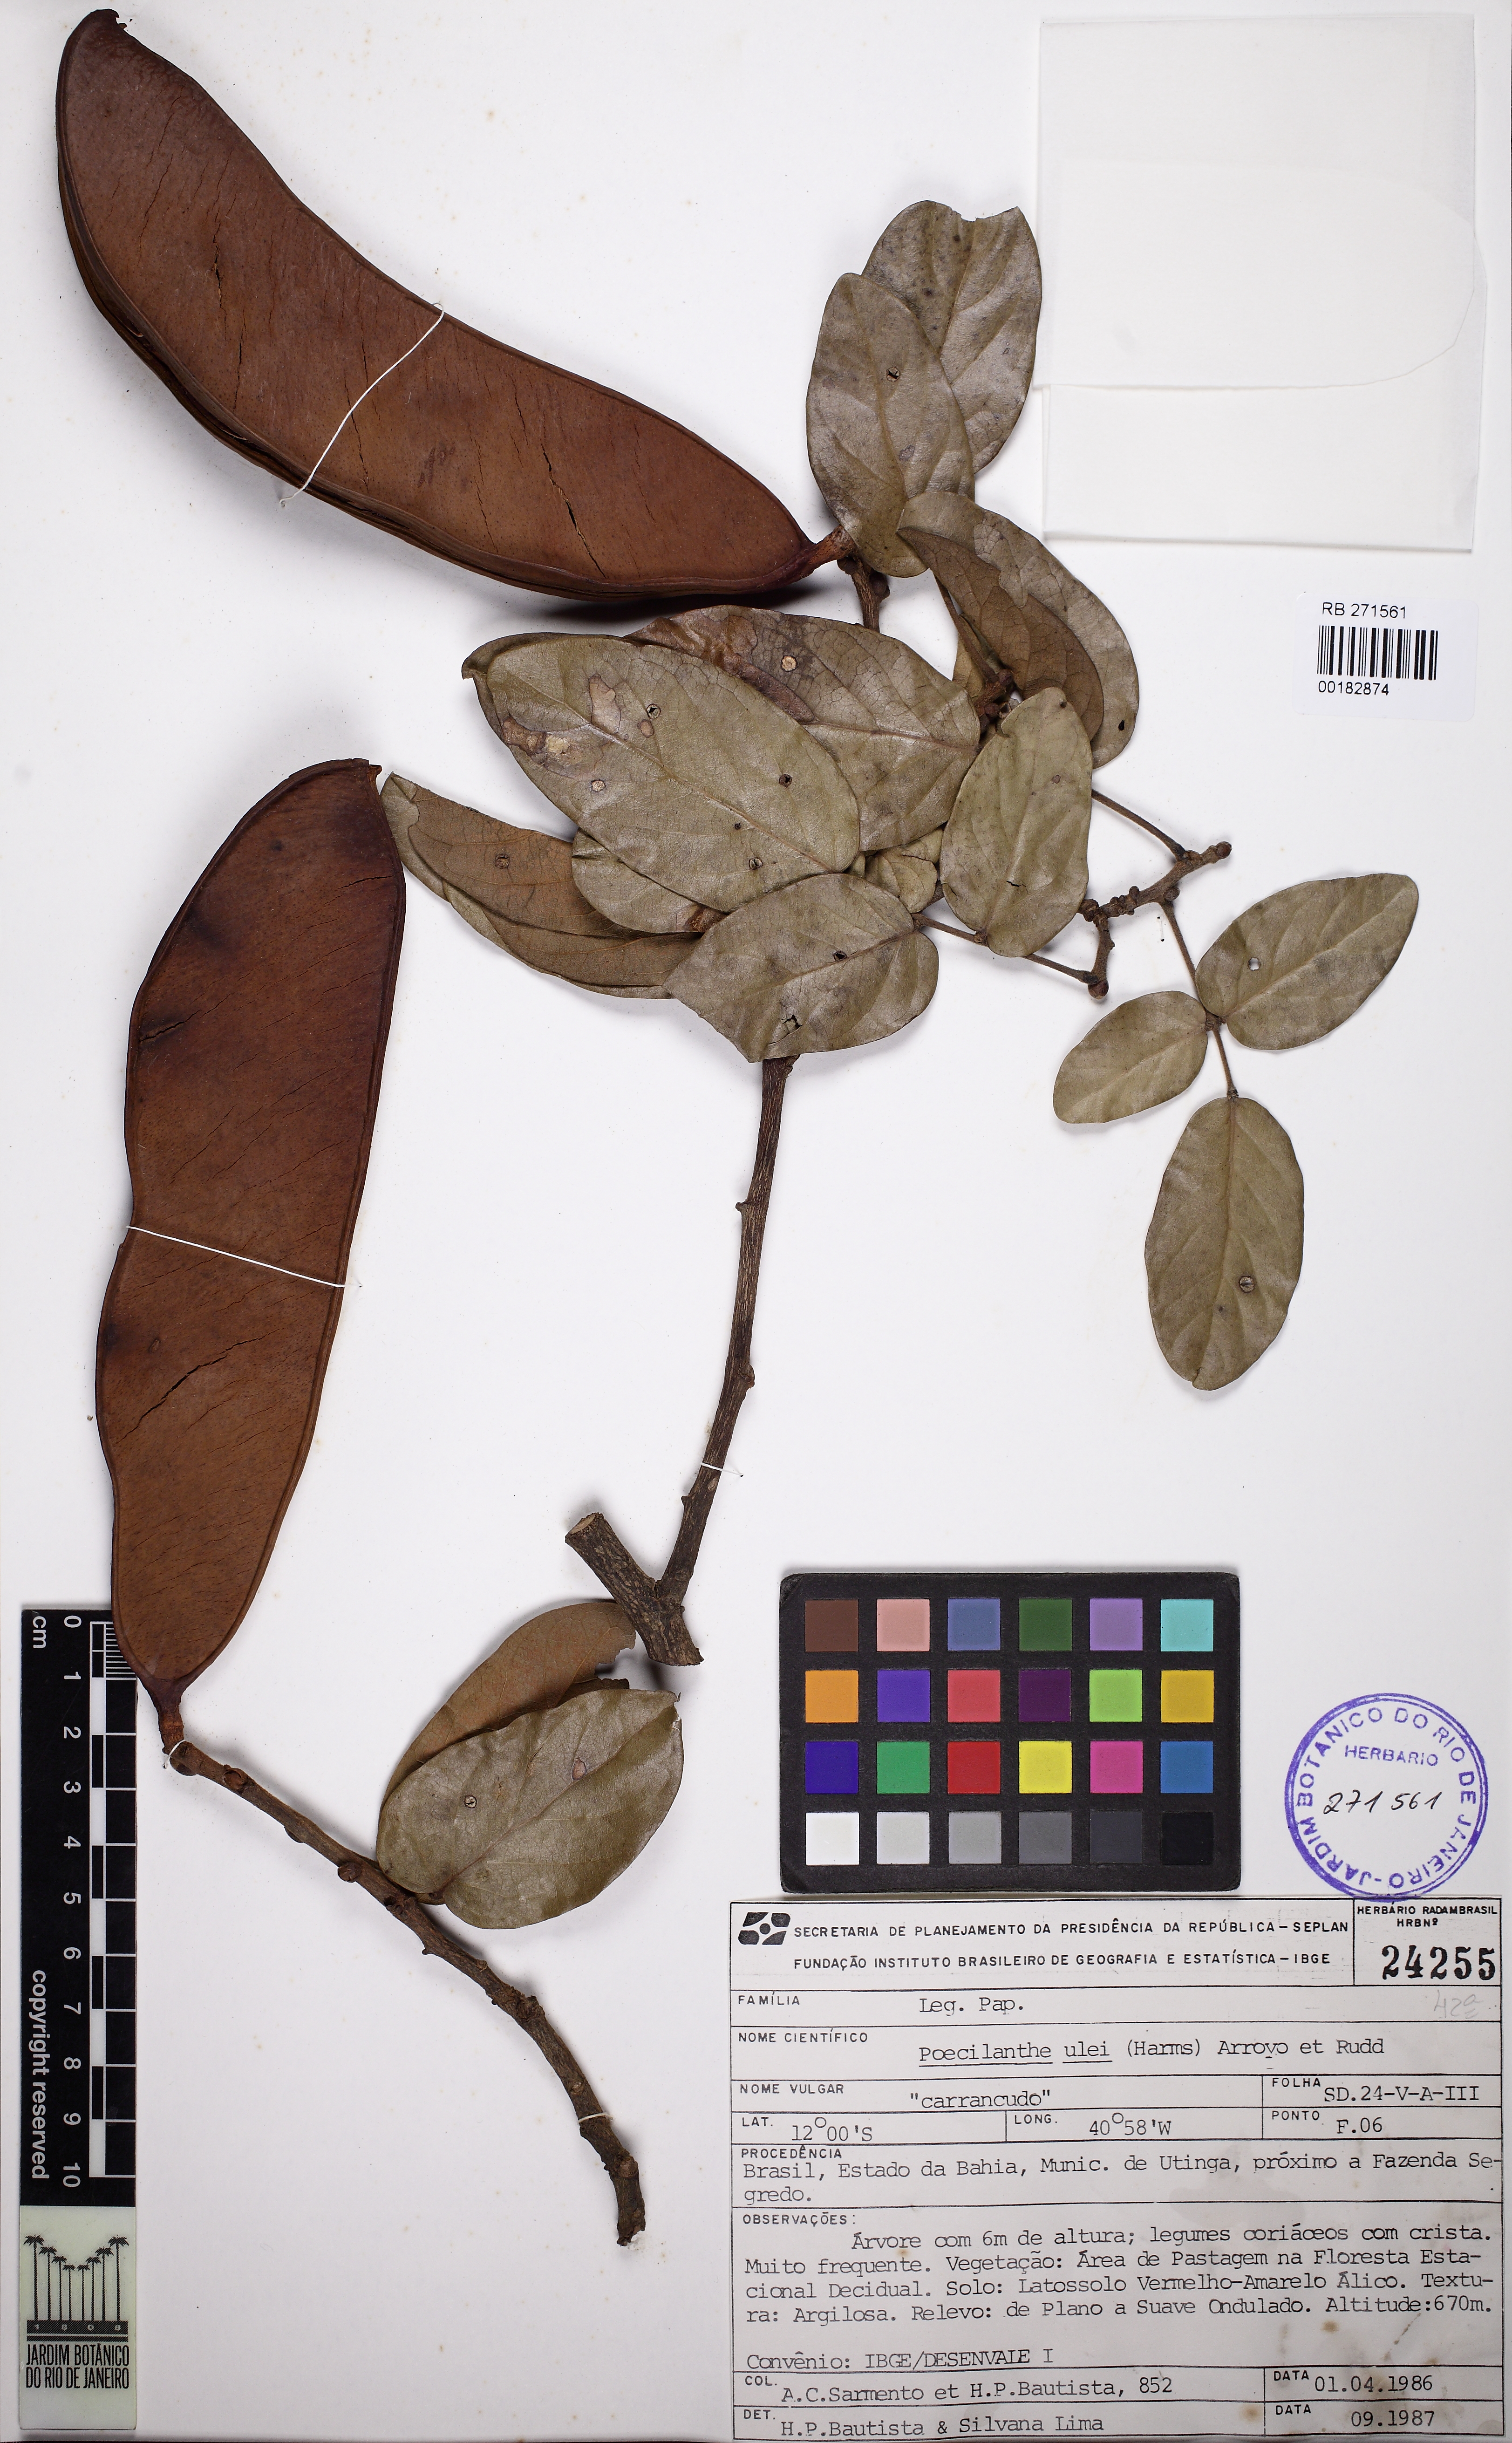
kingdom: Plantae
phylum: Tracheophyta
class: Magnoliopsida
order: Fabales
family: Fabaceae
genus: Poecilanthe
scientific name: Poecilanthe ulei
